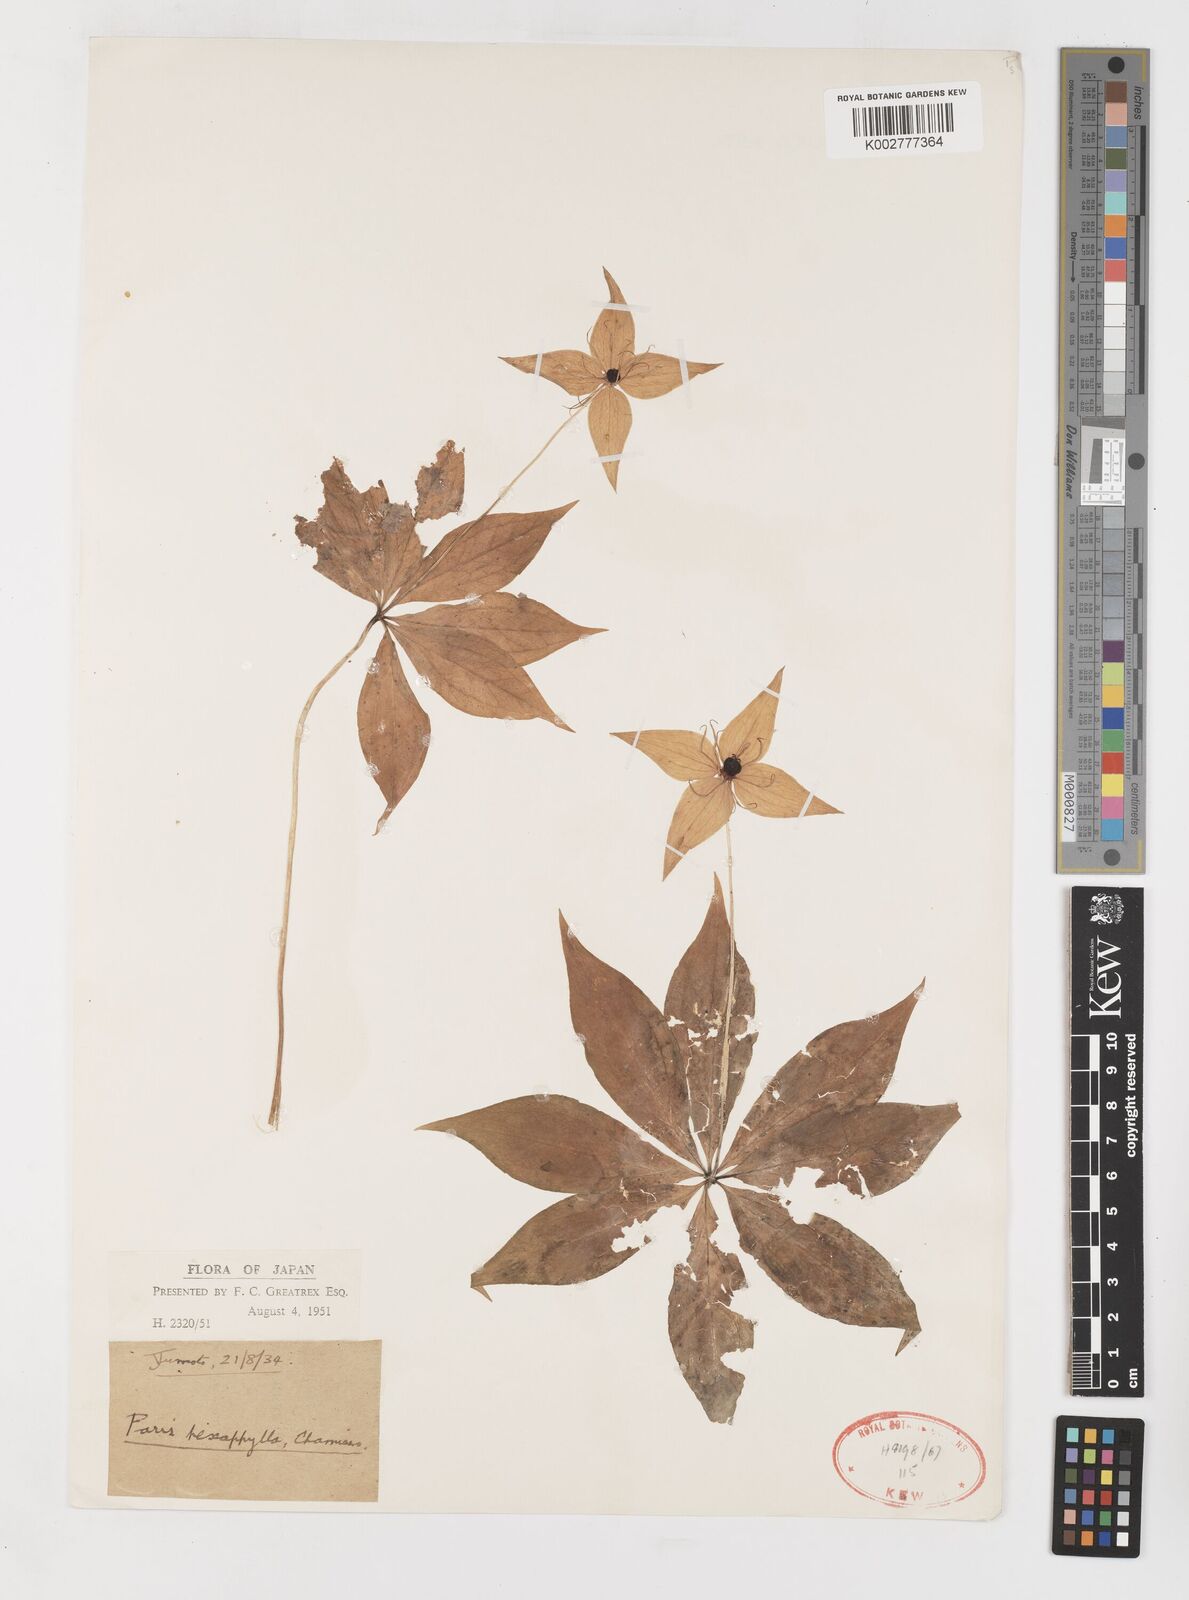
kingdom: Plantae
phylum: Tracheophyta
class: Liliopsida
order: Liliales
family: Melanthiaceae
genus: Paris
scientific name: Paris verticillata
